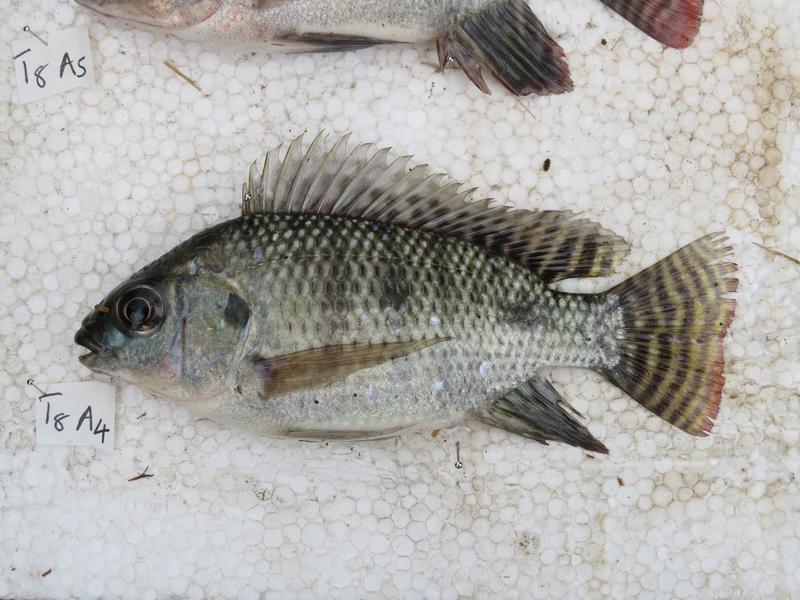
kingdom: Animalia
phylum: Chordata
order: Perciformes
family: Cichlidae
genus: Oreochromis
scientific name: Oreochromis niloticus
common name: Nile tilapia
